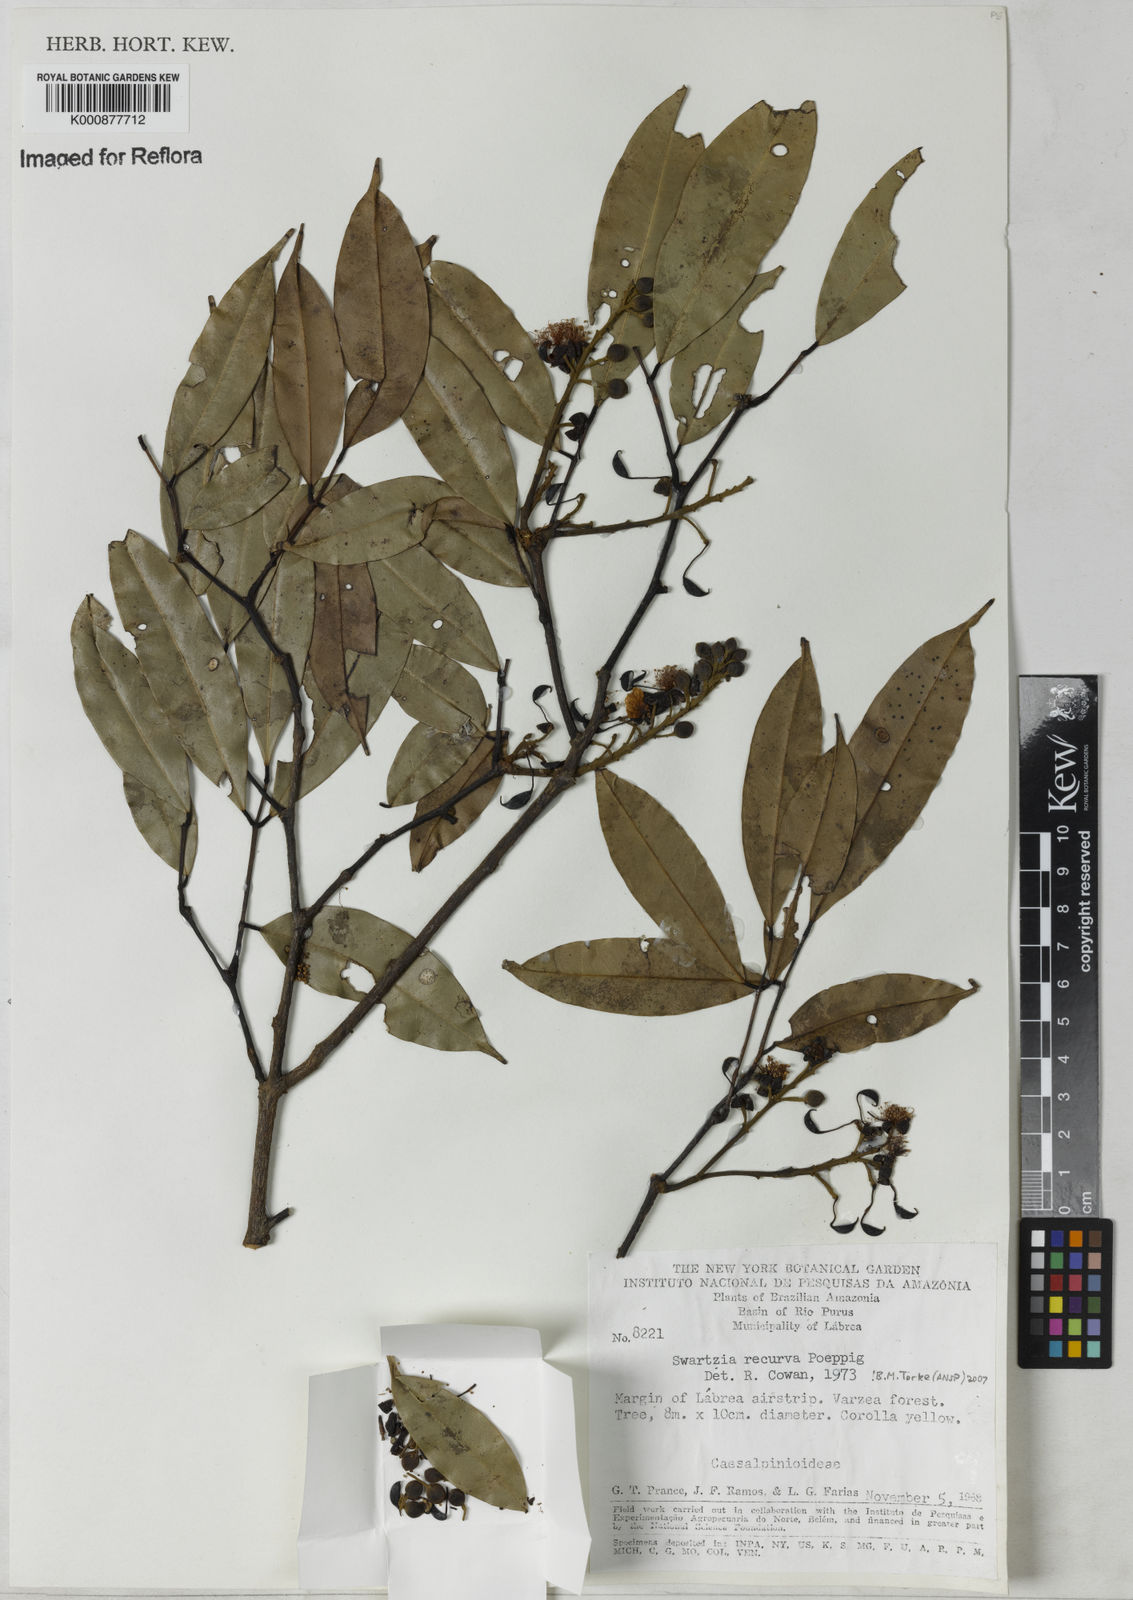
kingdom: Plantae
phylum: Tracheophyta
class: Magnoliopsida
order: Fabales
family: Fabaceae
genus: Swartzia
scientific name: Swartzia recurva
